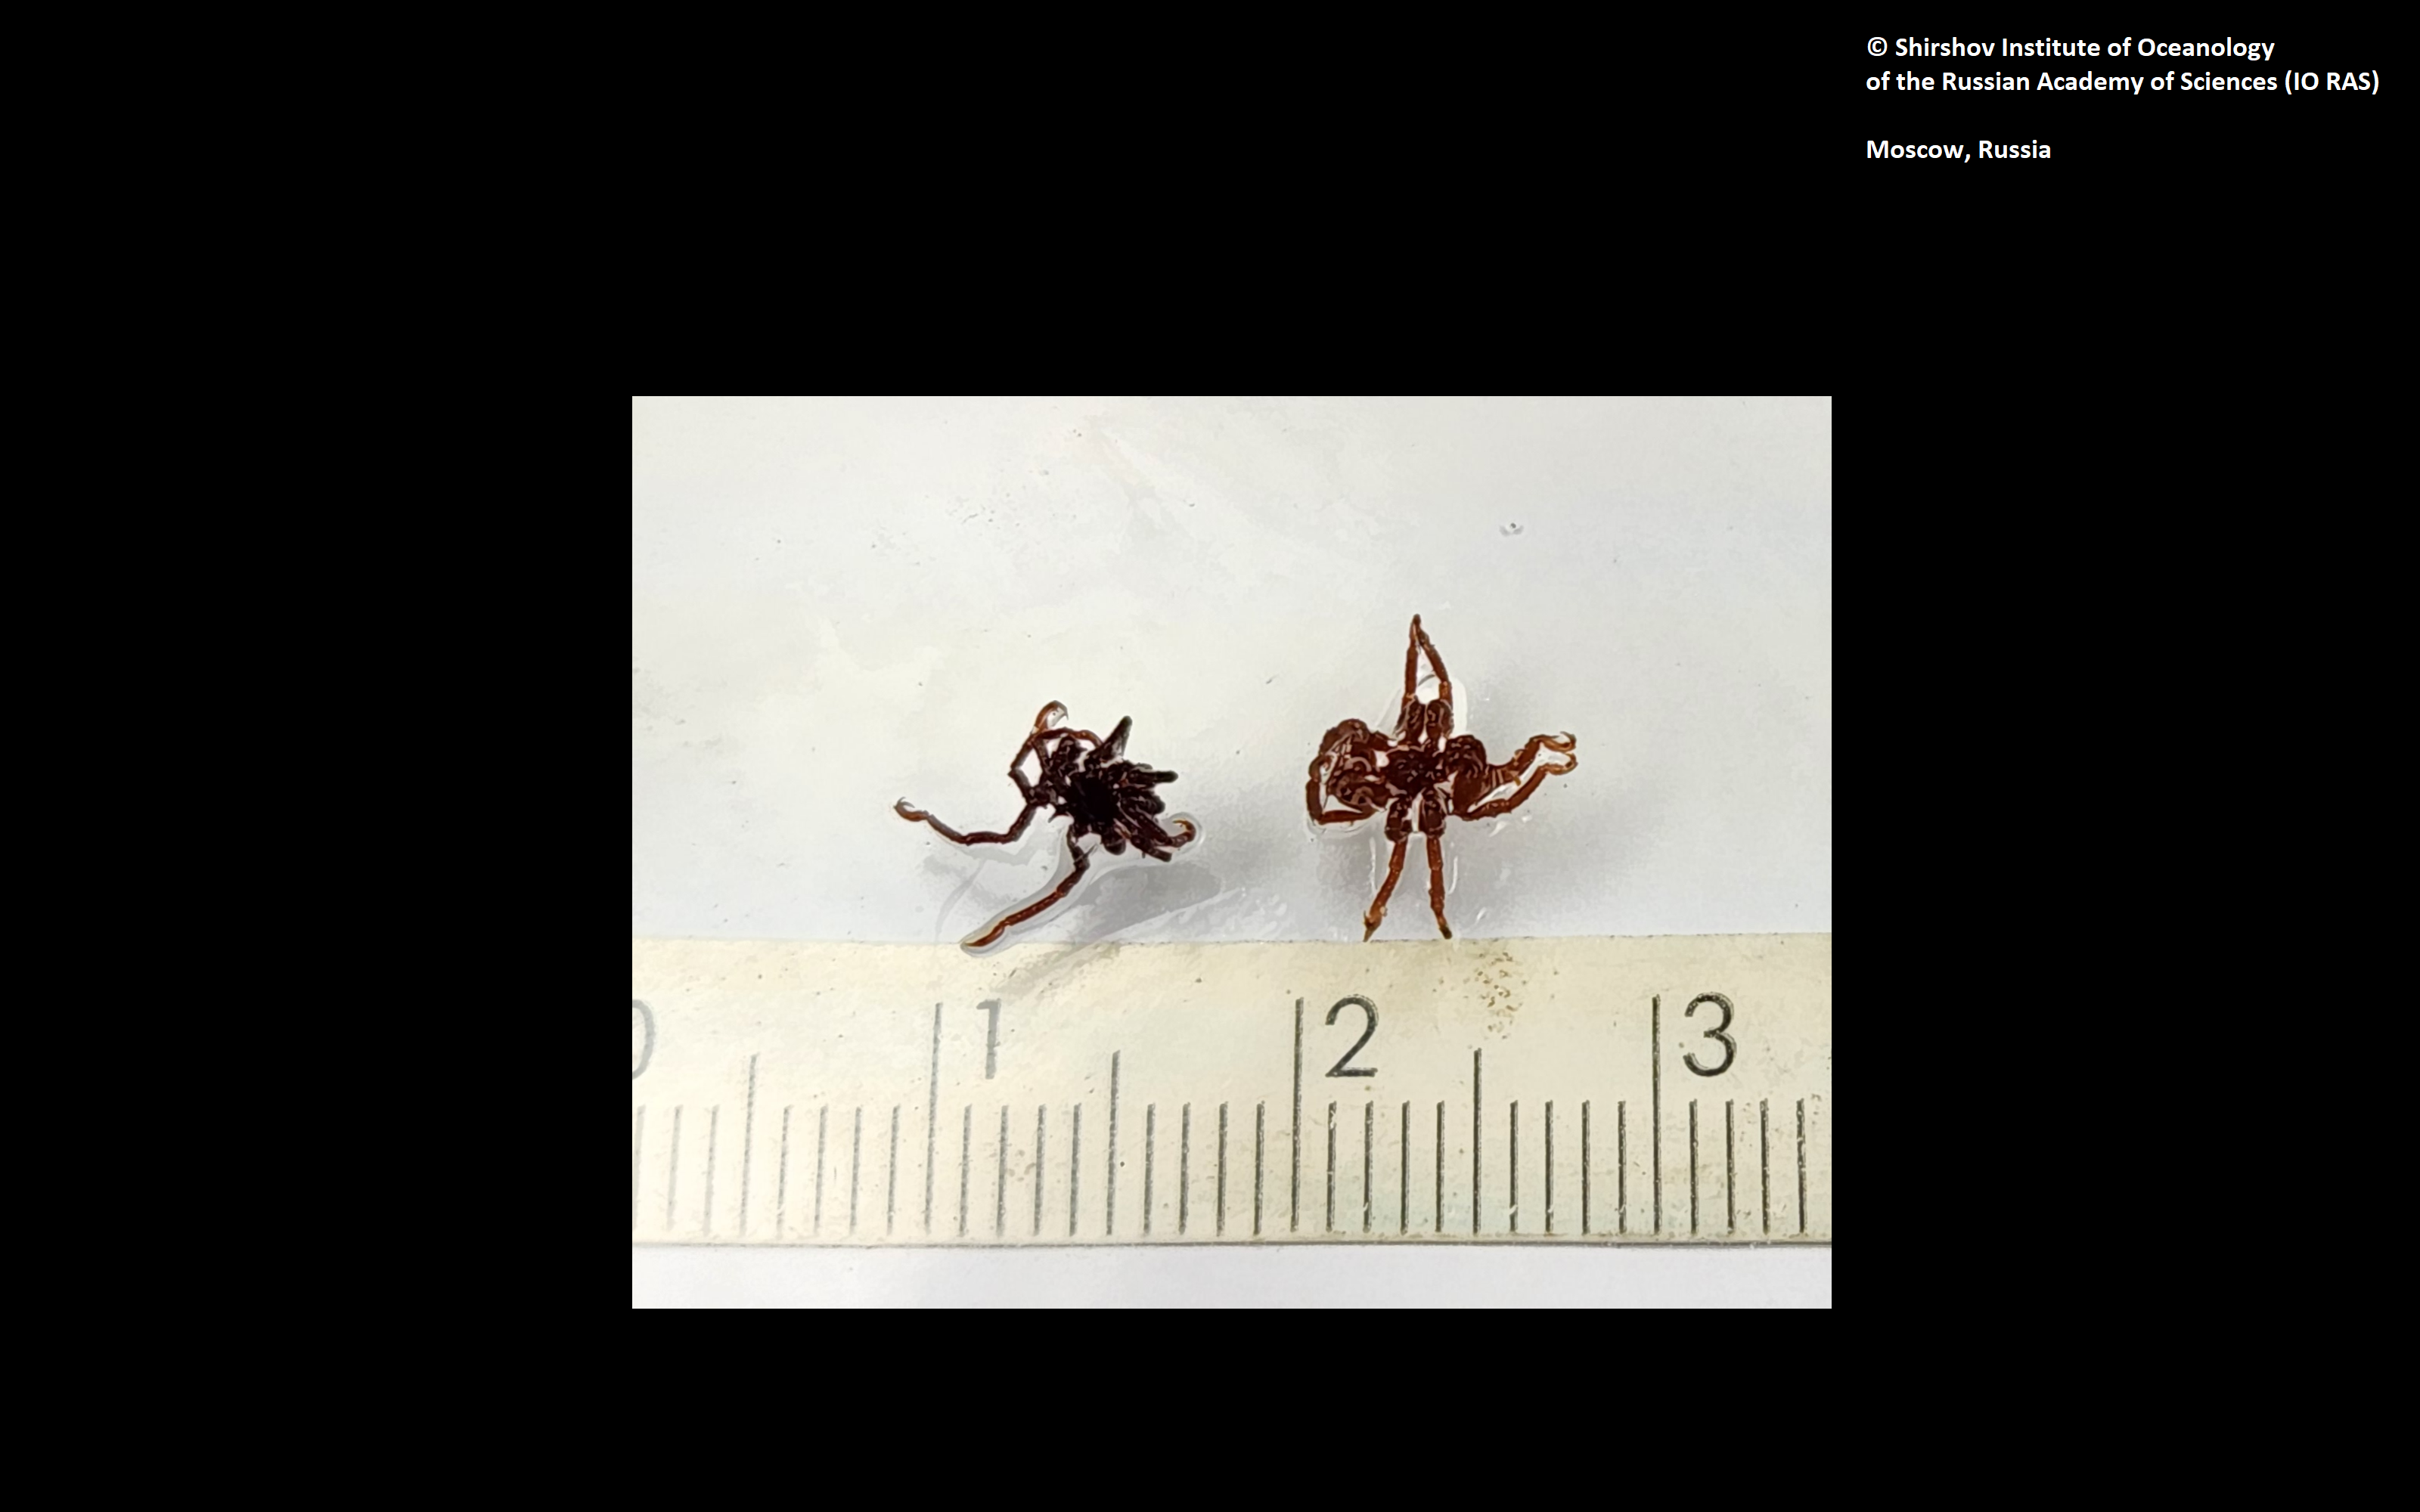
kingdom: Animalia
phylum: Arthropoda
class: Pycnogonida
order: Pantopoda
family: Ammotheidae
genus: Achelia
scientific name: Achelia alaskensis
